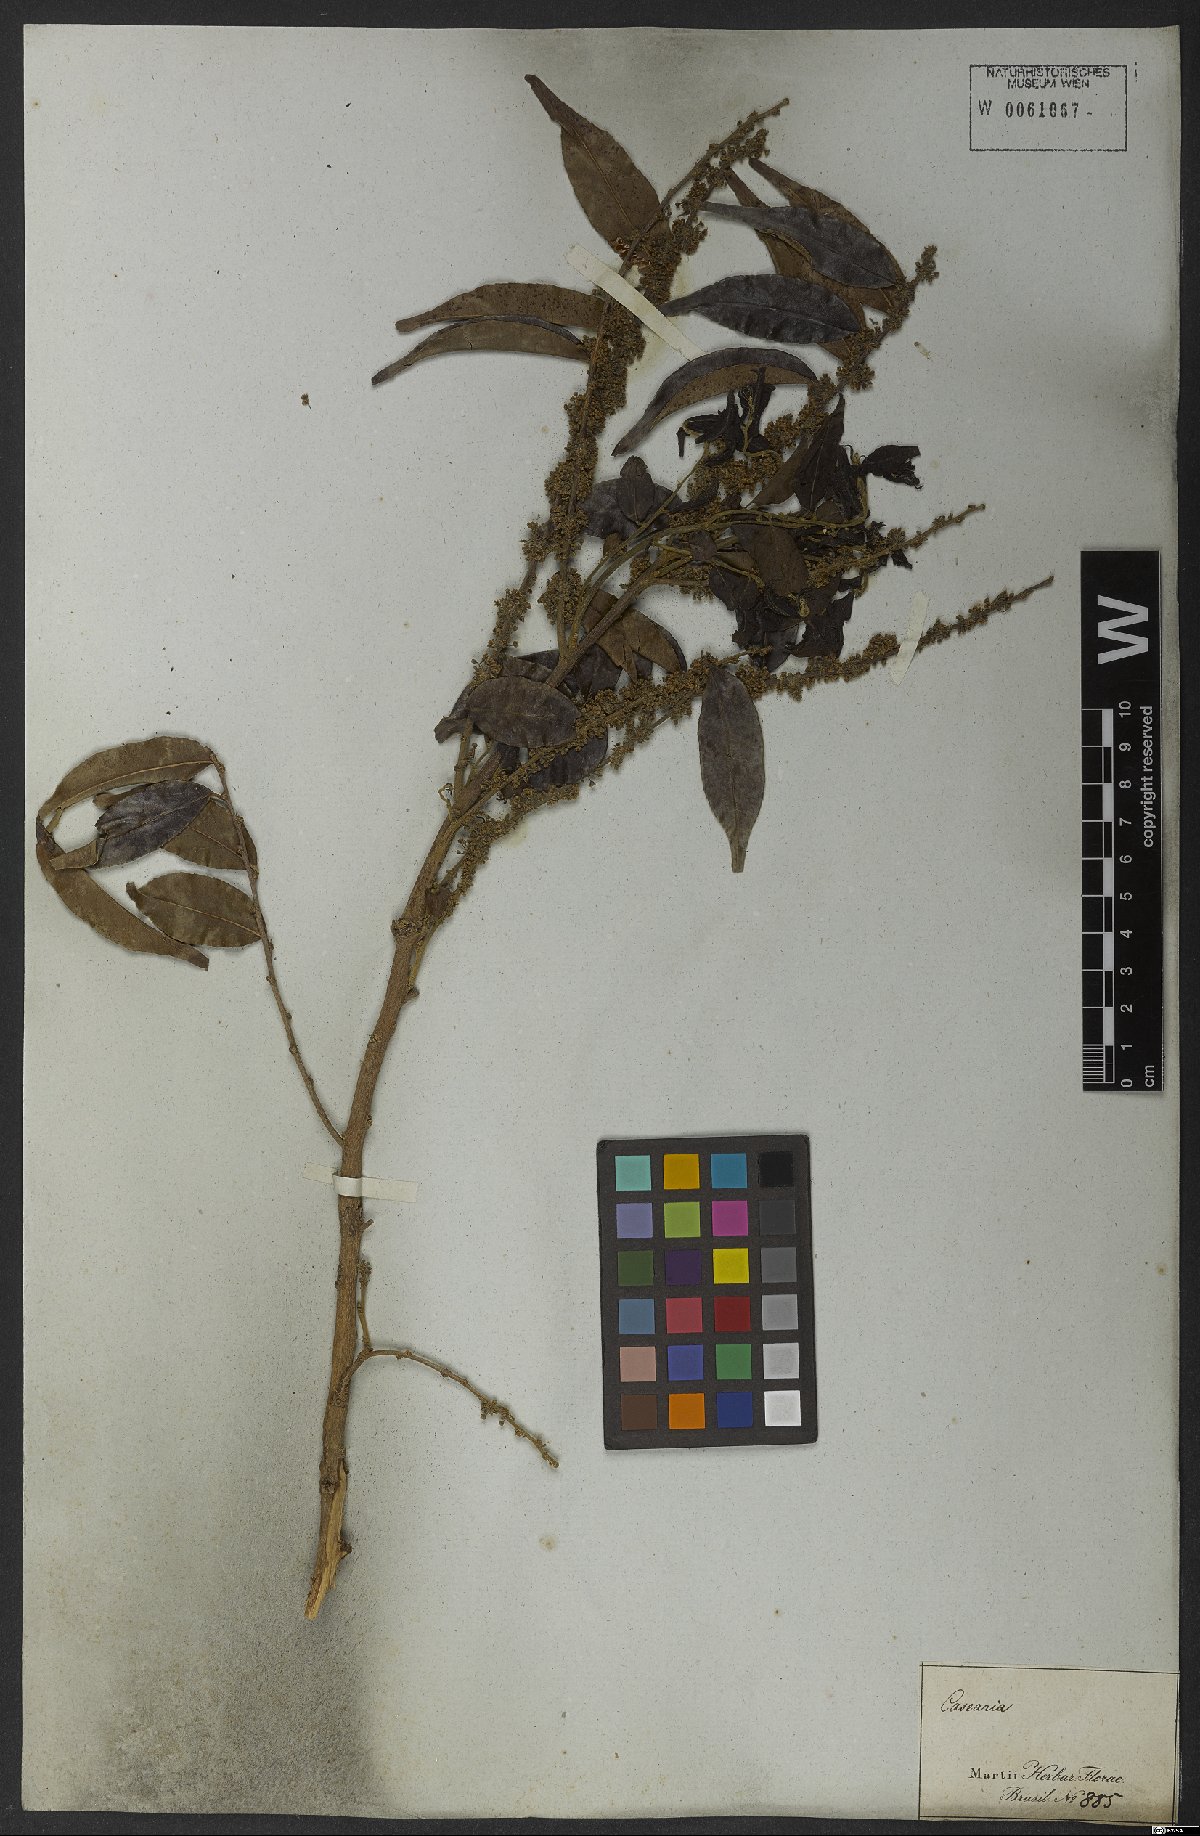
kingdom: Plantae
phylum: Tracheophyta
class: Magnoliopsida
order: Malpighiales
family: Salicaceae
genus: Casearia
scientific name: Casearia sylvestris
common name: Wild sage
